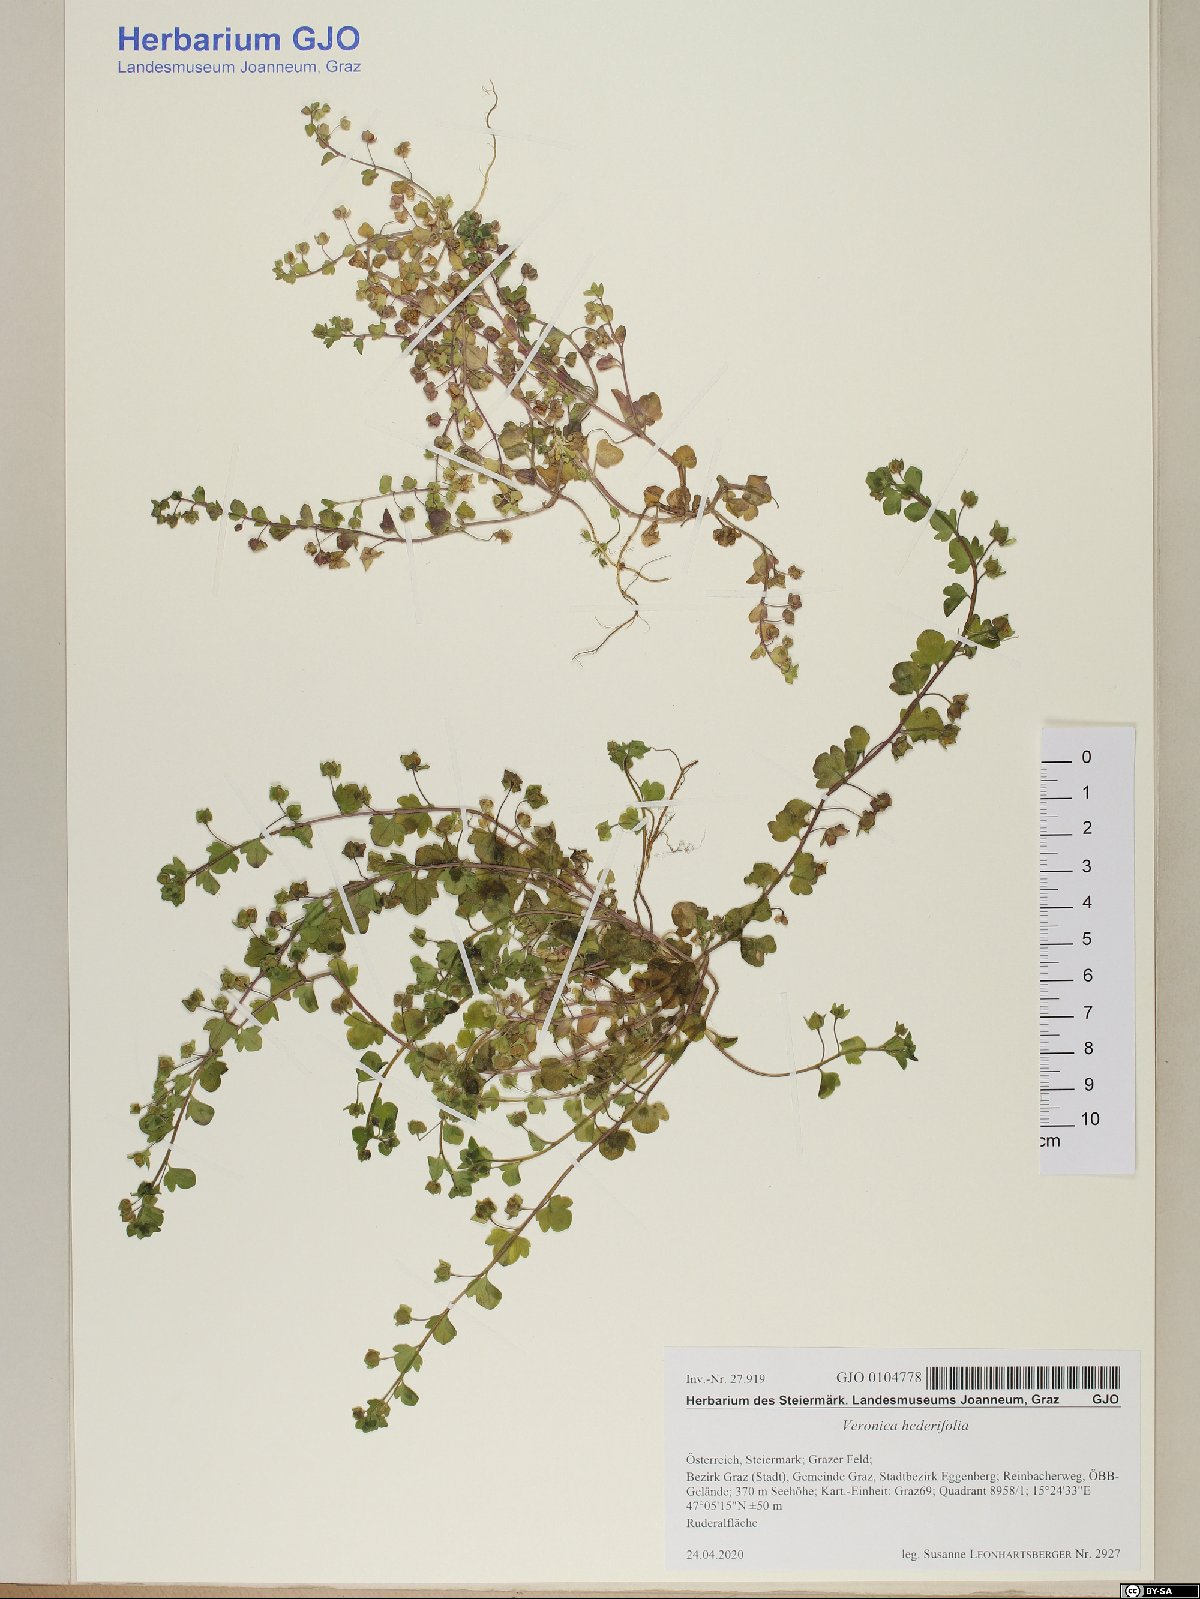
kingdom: Plantae
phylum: Tracheophyta
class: Magnoliopsida
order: Lamiales
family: Plantaginaceae
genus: Veronica
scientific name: Veronica hederifolia
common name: Ivy-leaved speedwell
